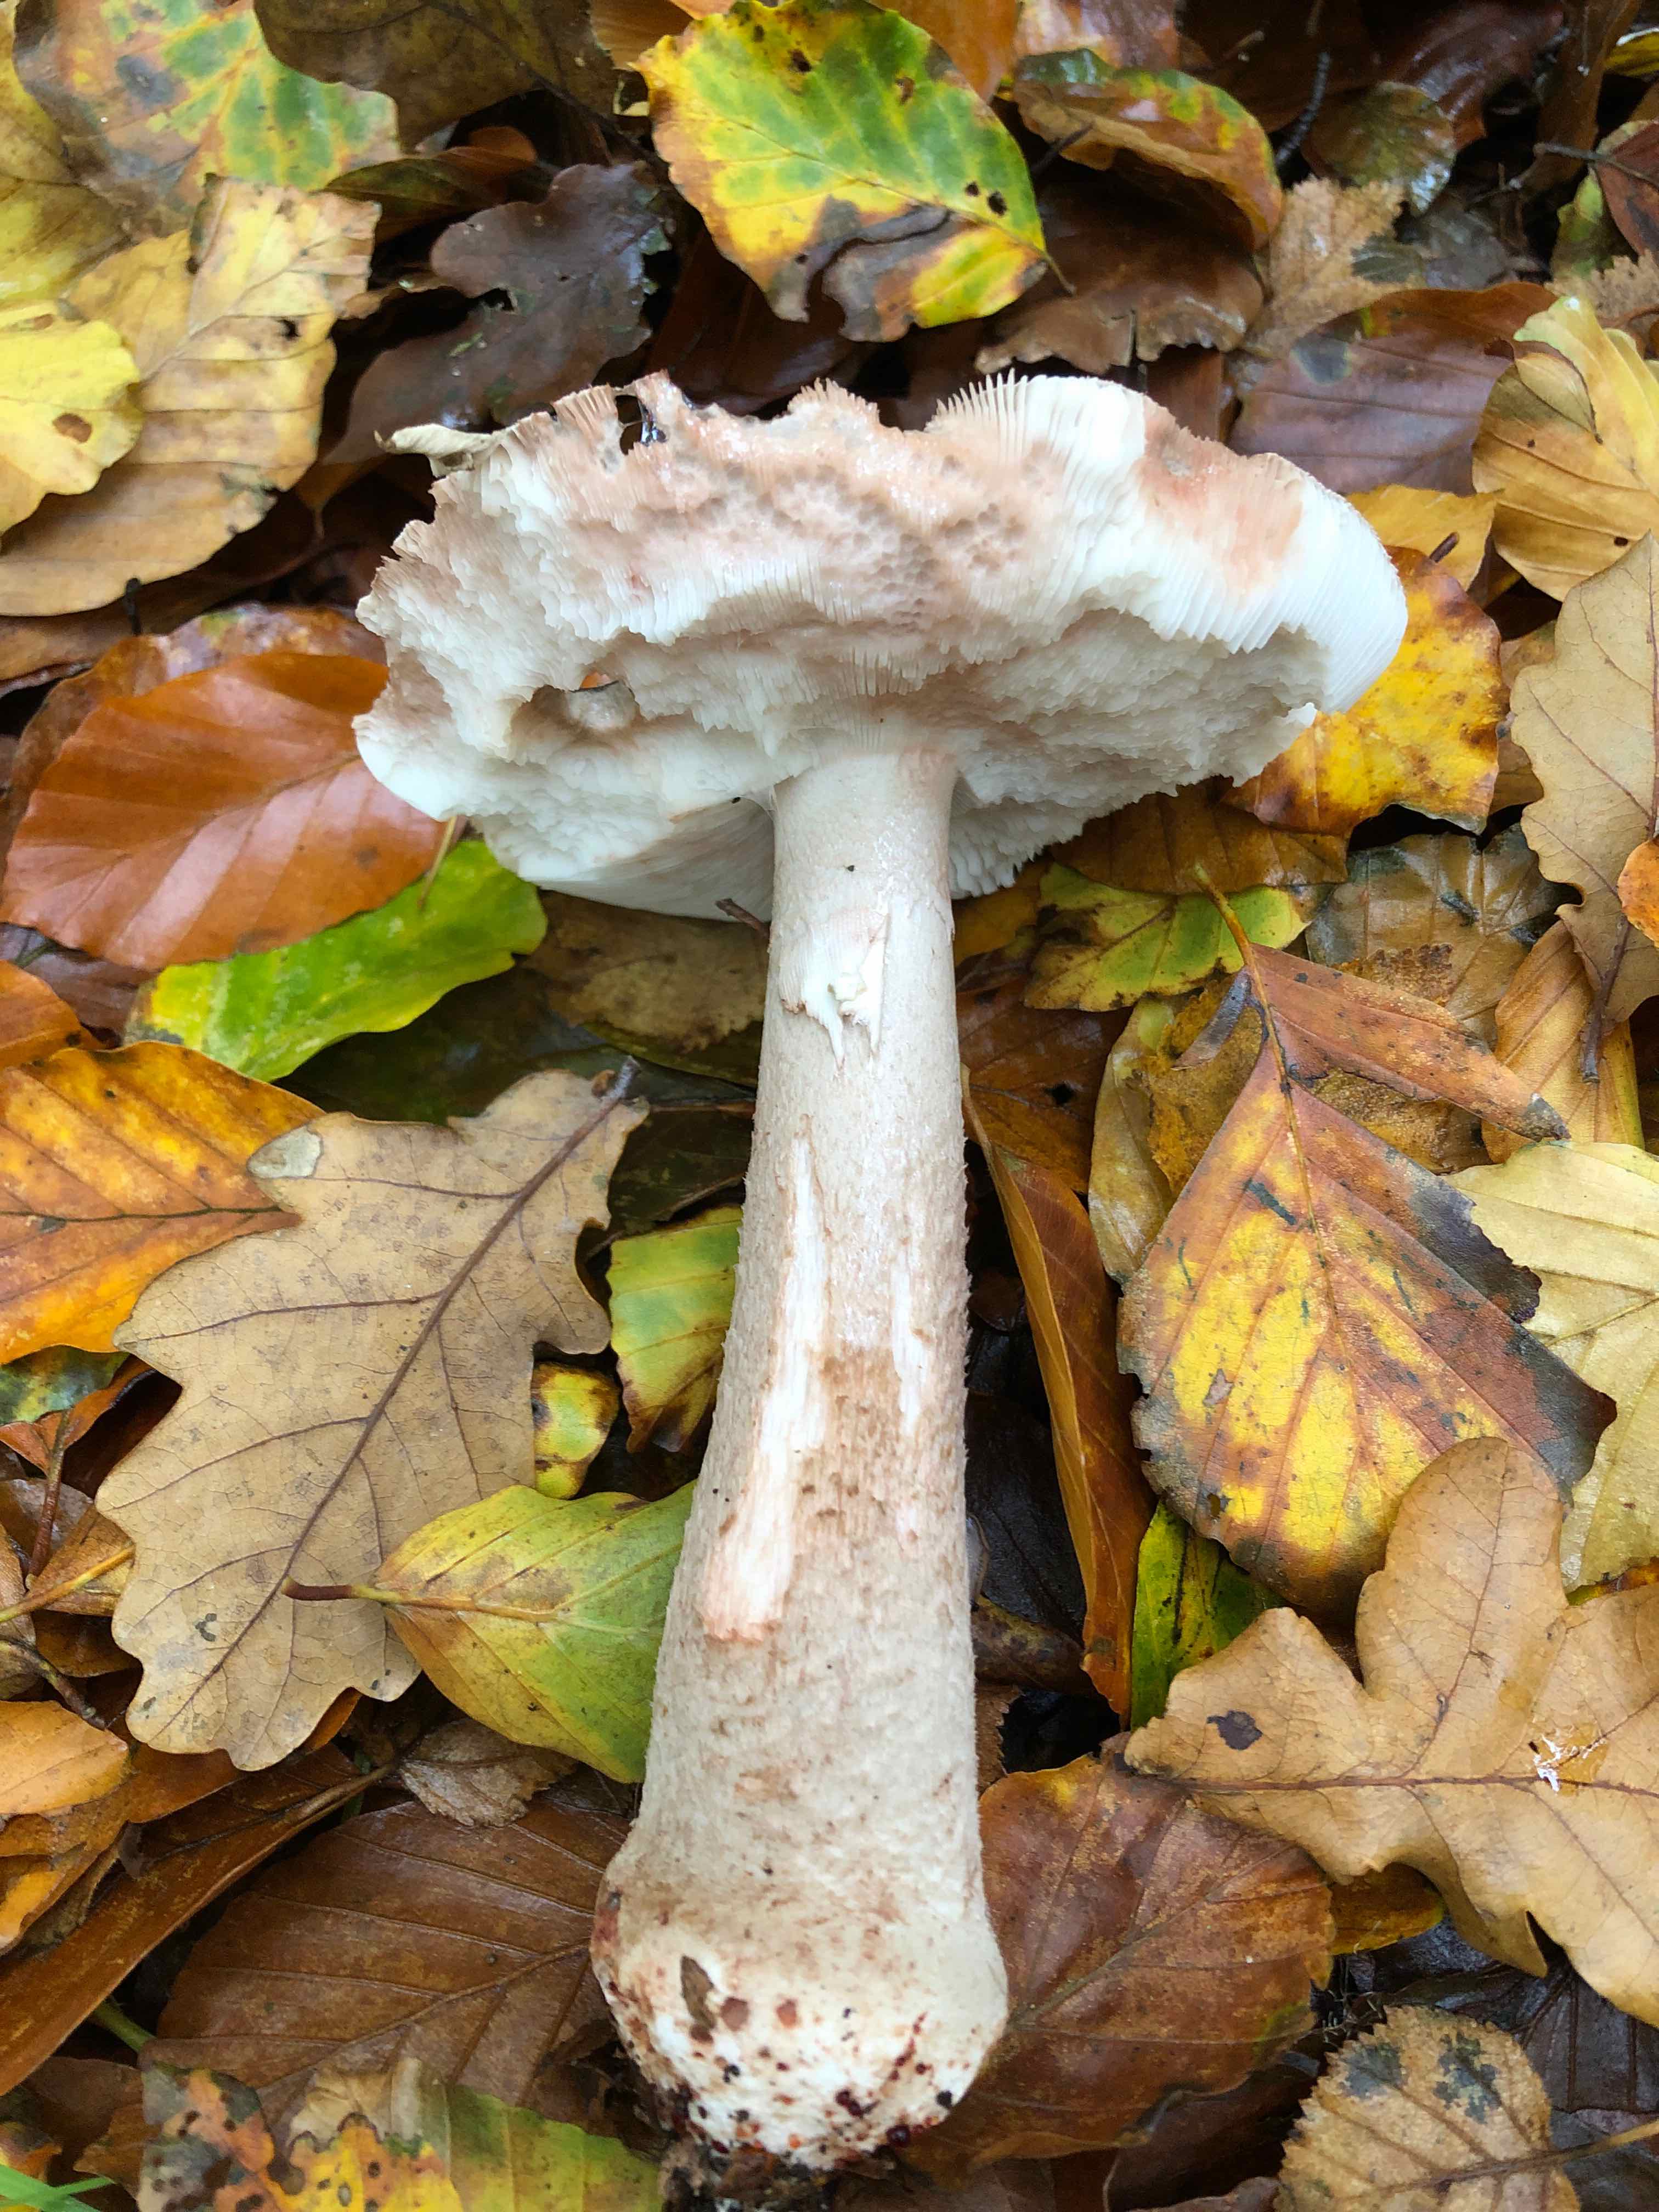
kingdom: Fungi
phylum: Basidiomycota
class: Agaricomycetes
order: Agaricales
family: Amanitaceae
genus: Amanita
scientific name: Amanita rubescens
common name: rødmende fluesvamp
